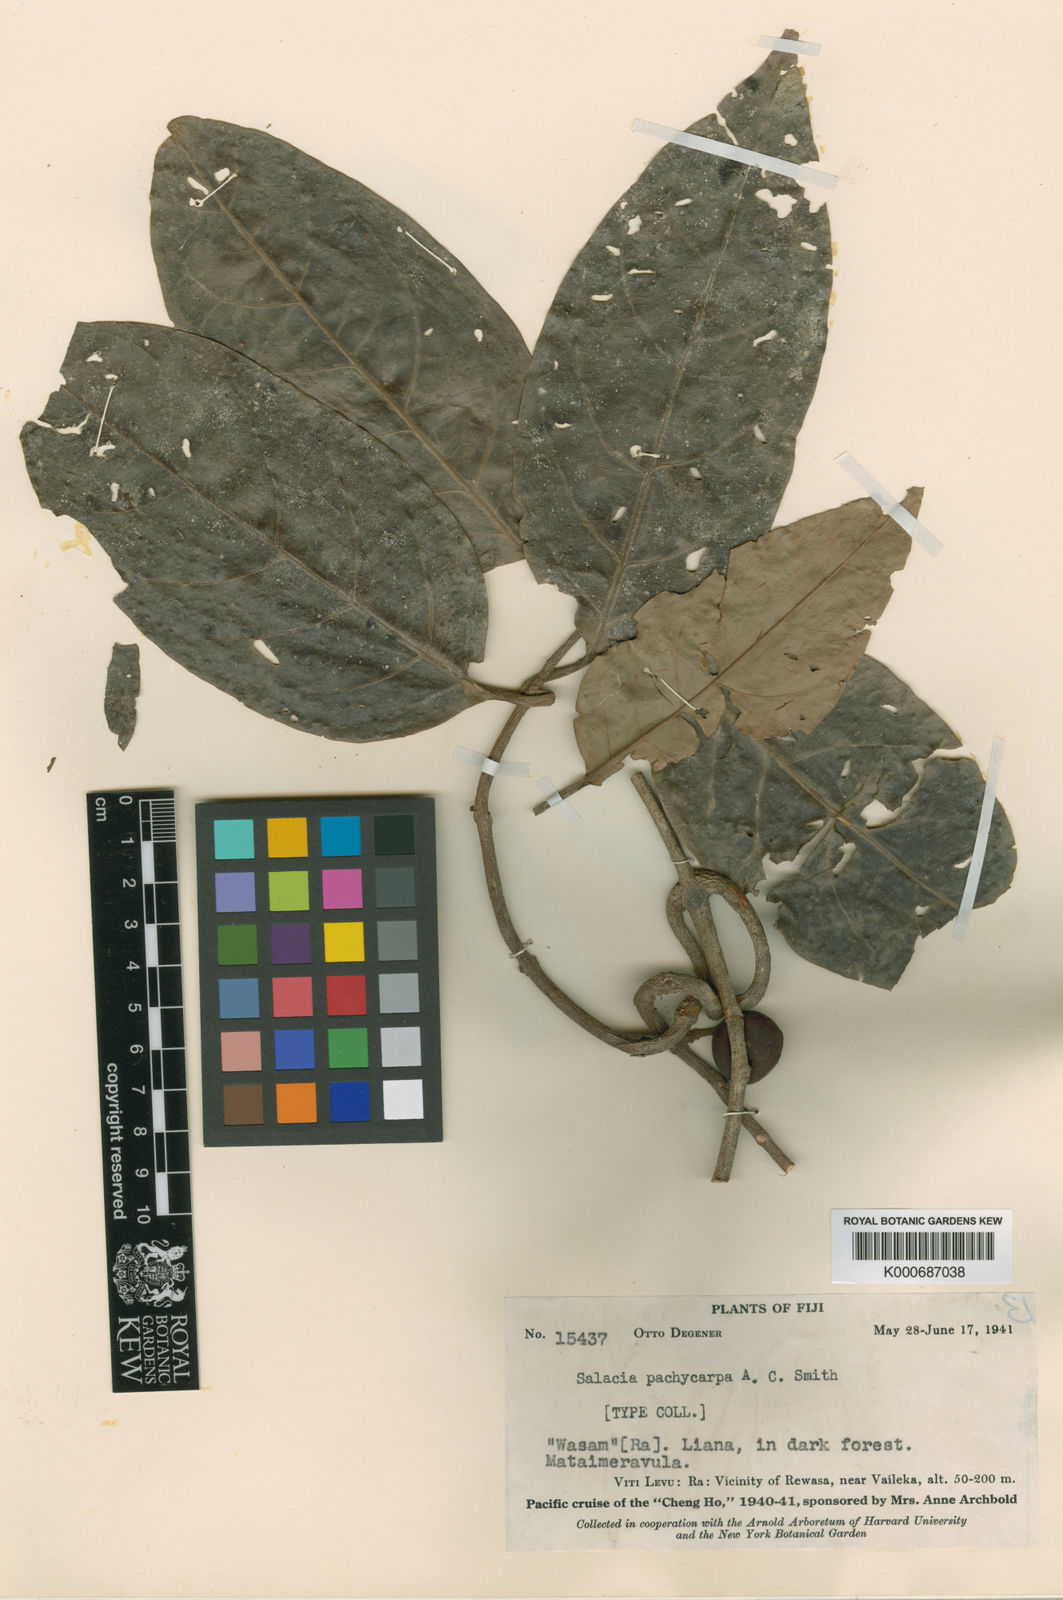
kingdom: Plantae
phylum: Tracheophyta
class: Magnoliopsida
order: Celastrales
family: Celastraceae
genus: Salacia
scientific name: Salacia pachycarpa
